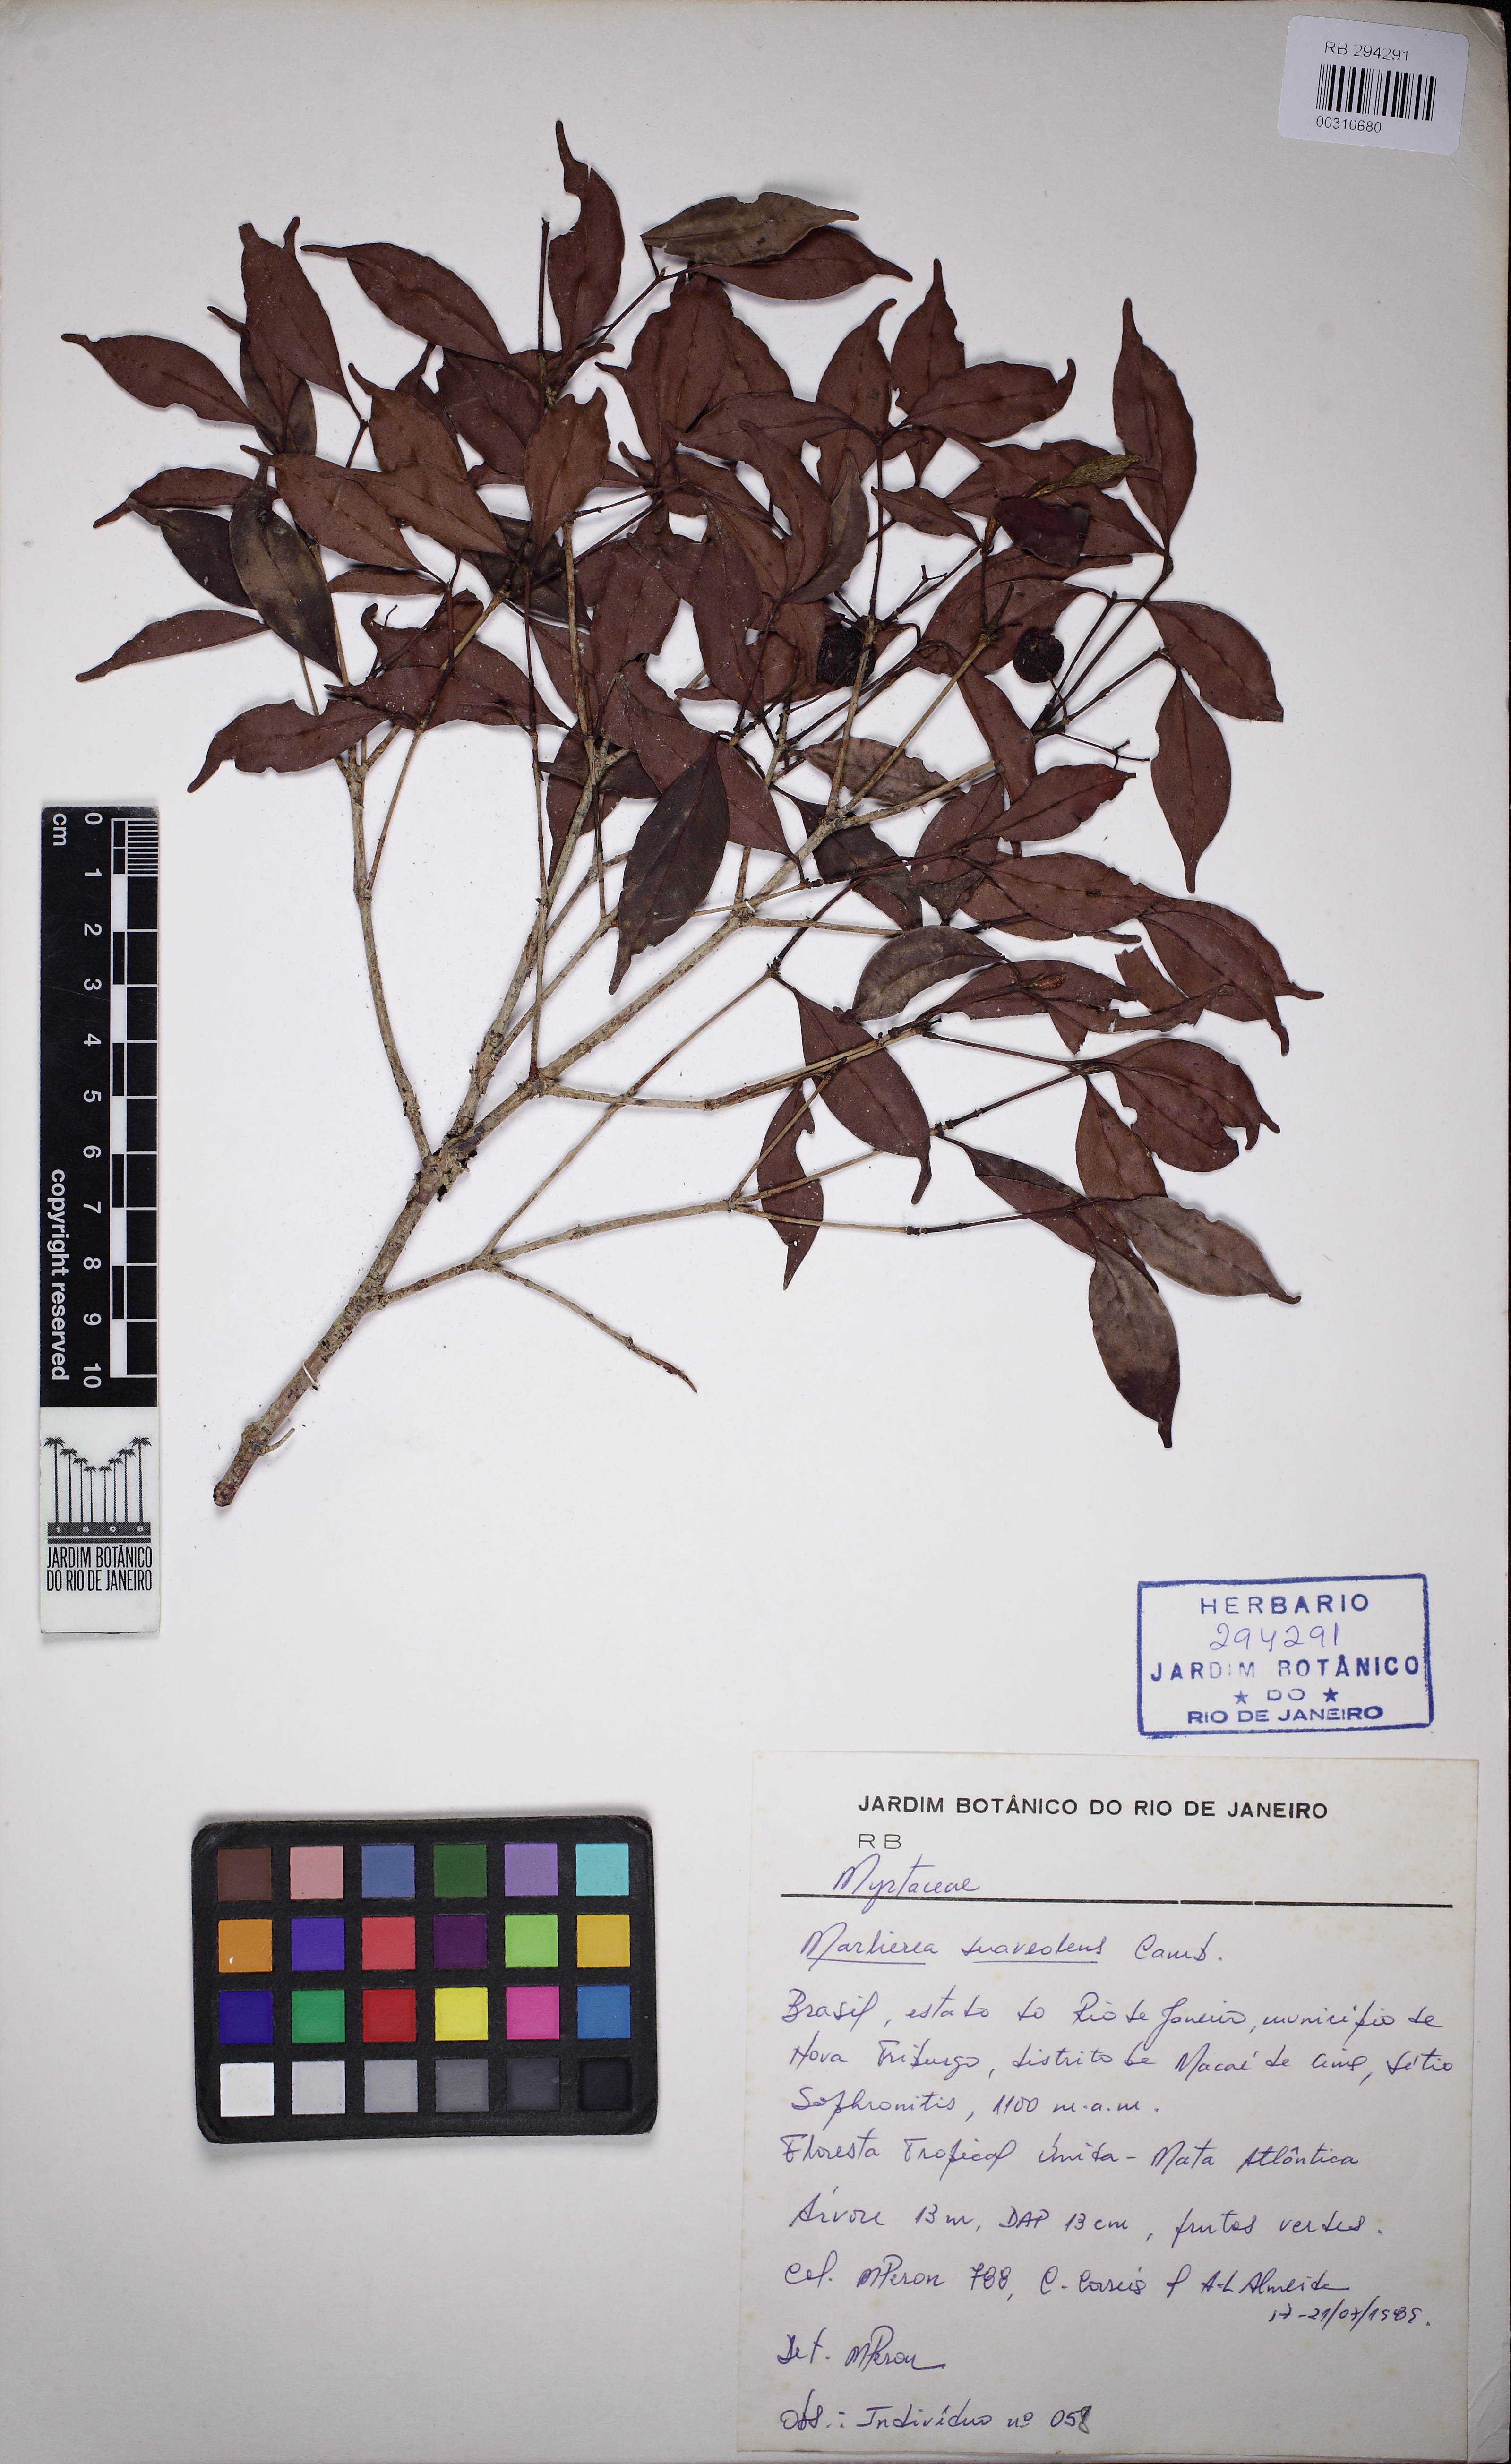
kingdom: Plantae
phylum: Tracheophyta
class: Magnoliopsida
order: Myrtales
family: Myrtaceae
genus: Myrcia
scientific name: Myrcia neosuaveolens
